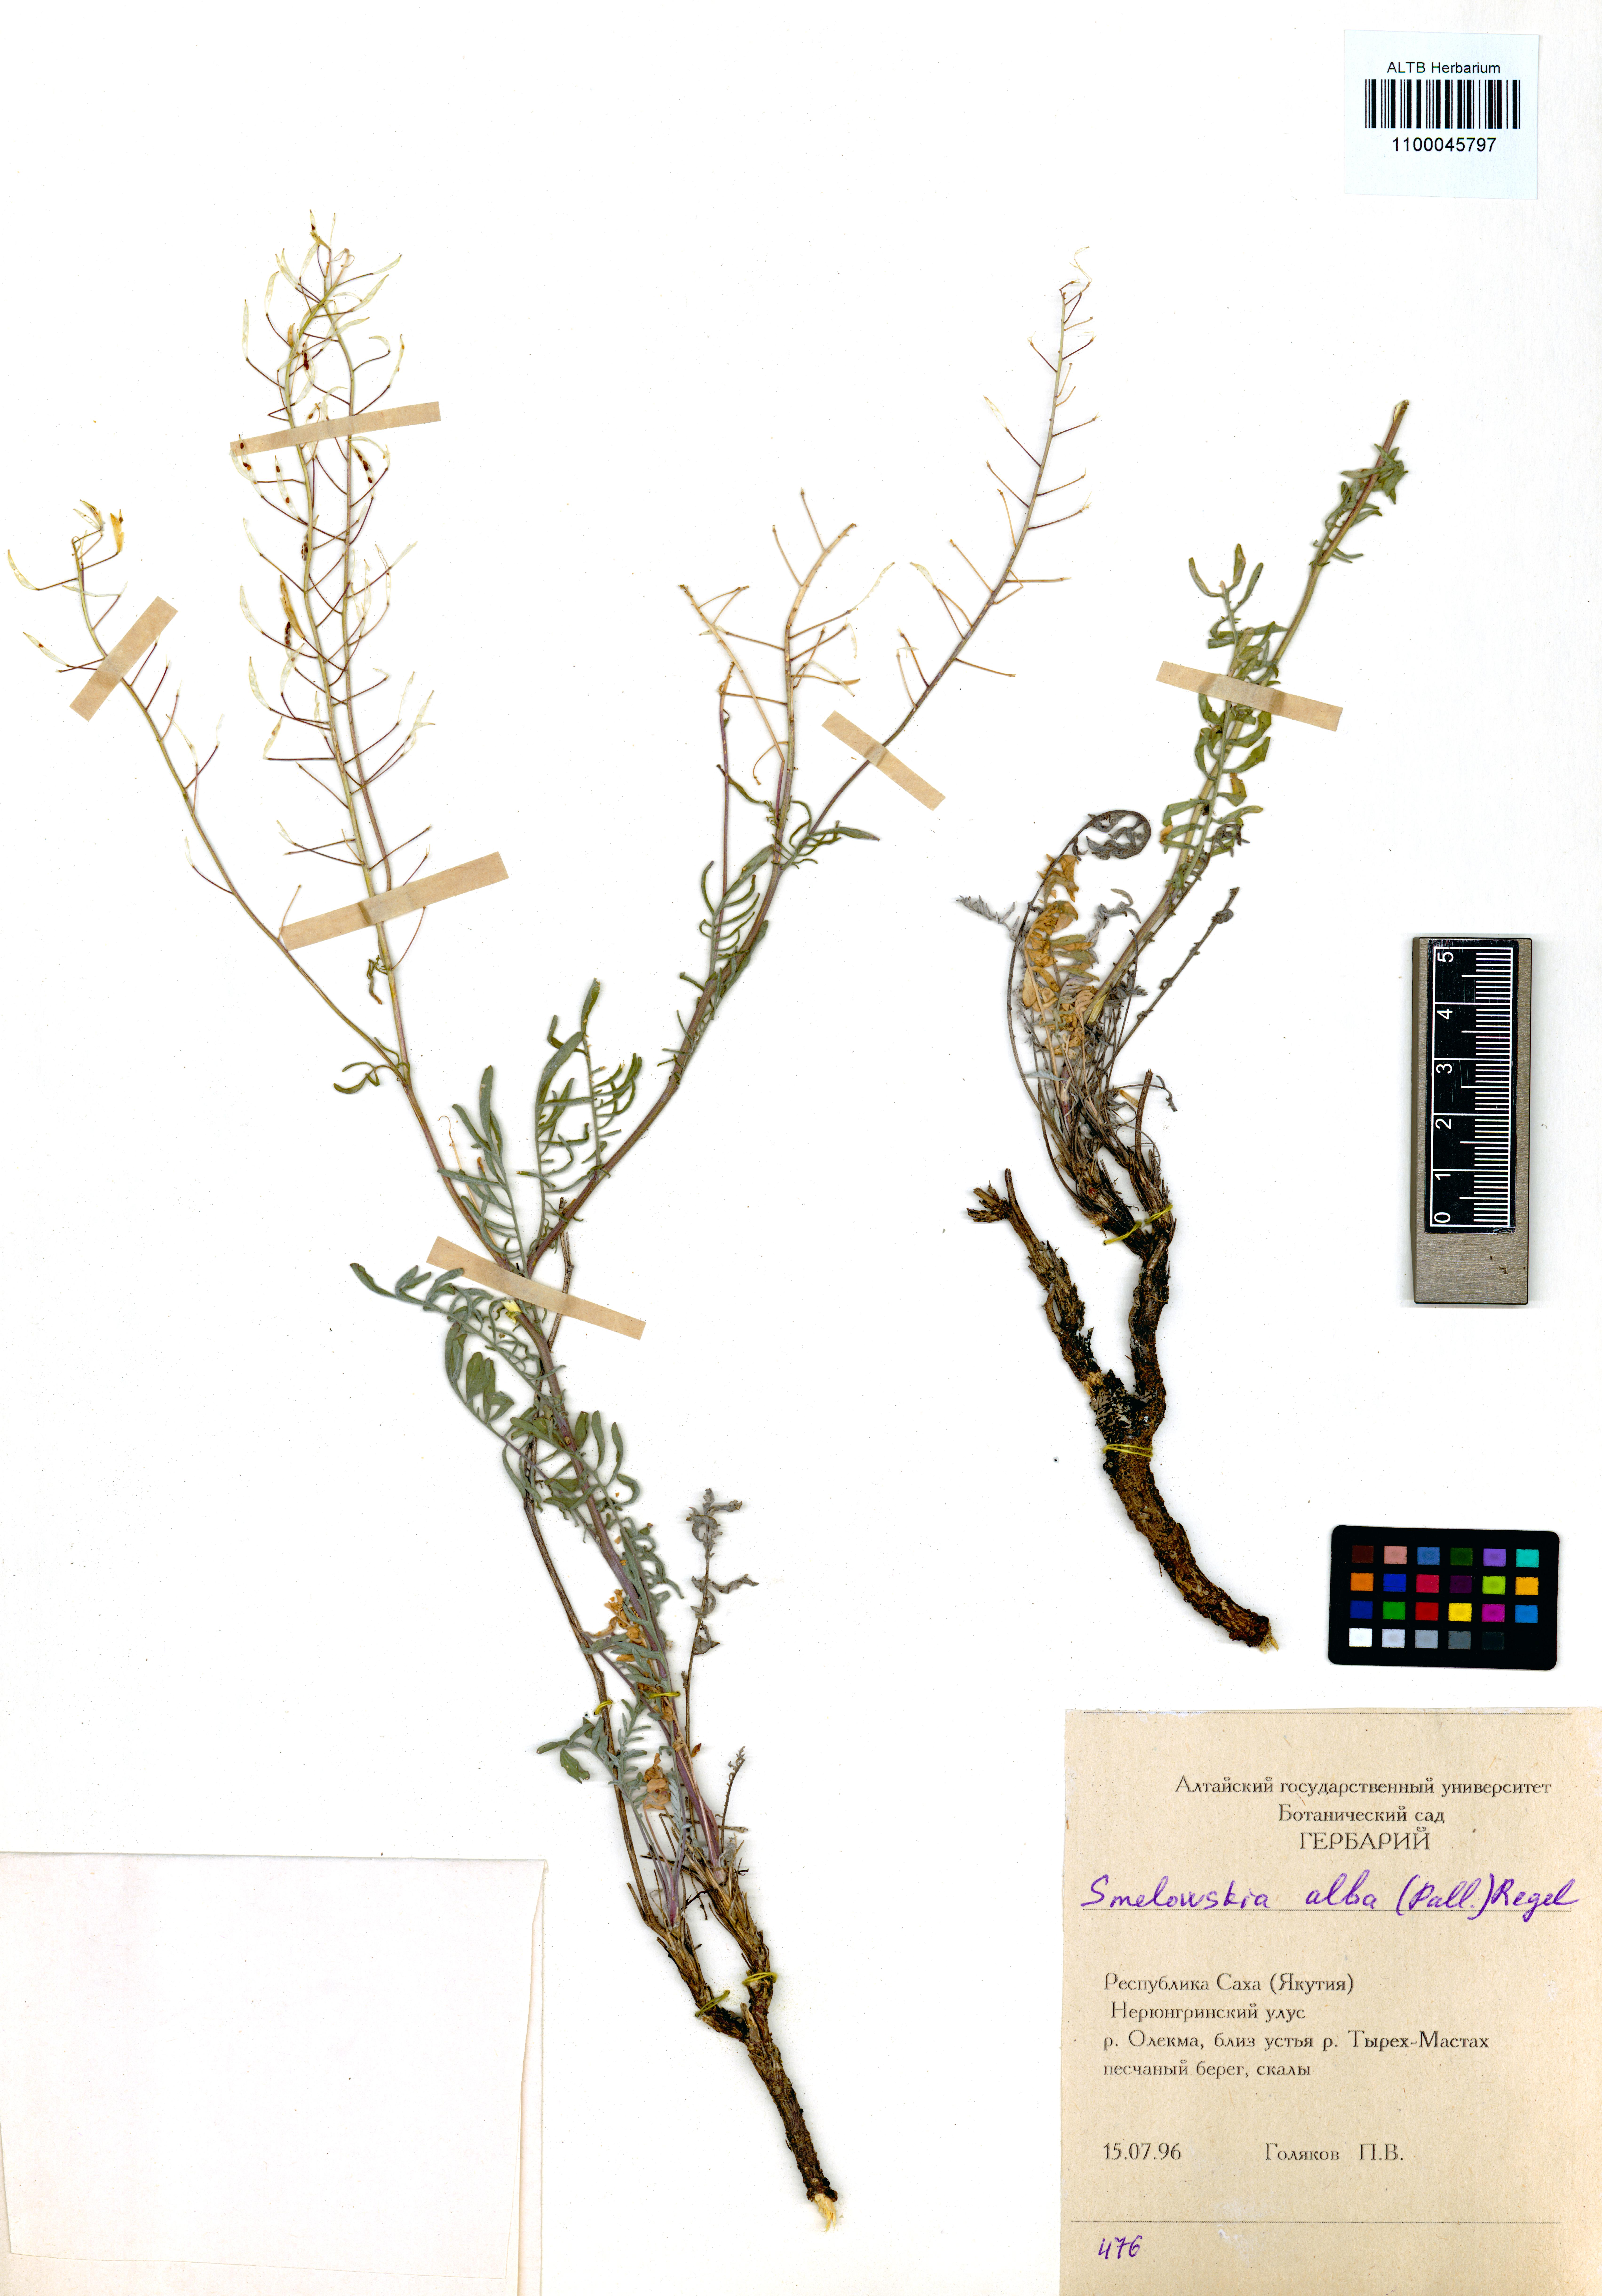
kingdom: Plantae
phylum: Tracheophyta
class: Magnoliopsida
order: Brassicales
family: Brassicaceae
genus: Smelowskia
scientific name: Smelowskia alba
